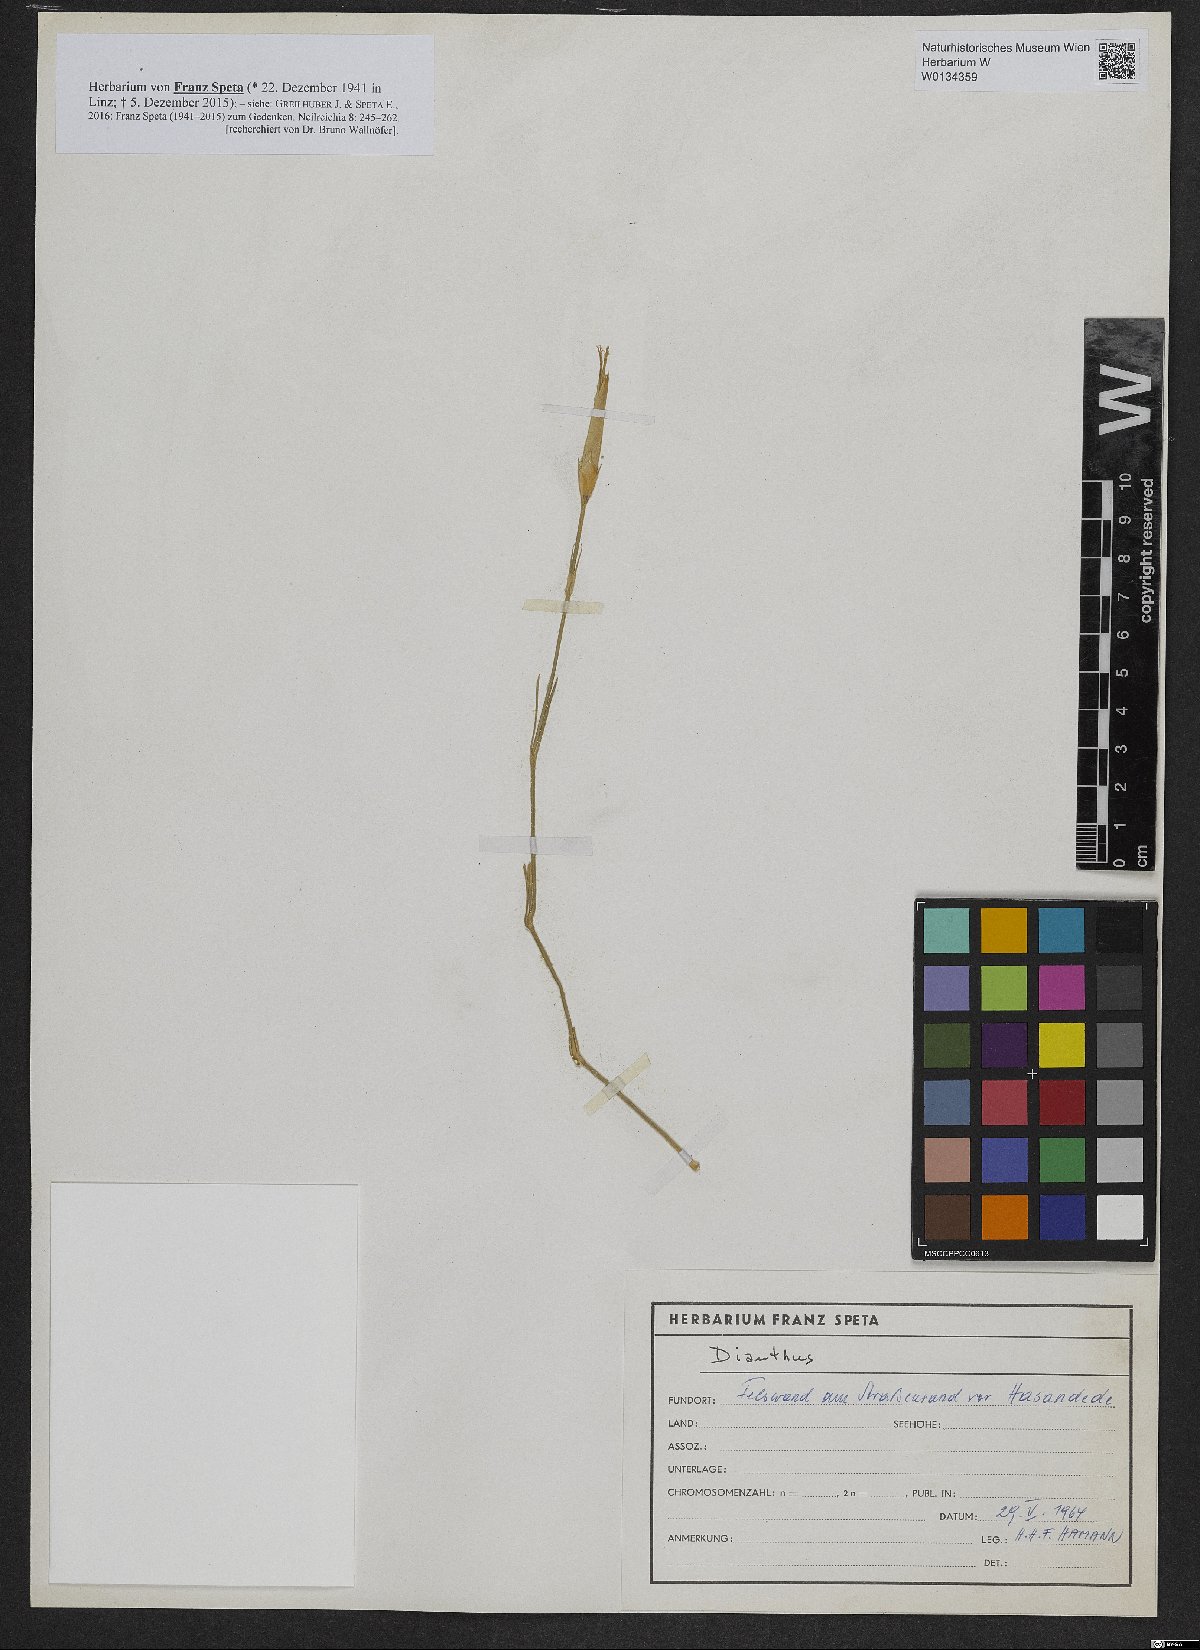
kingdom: Plantae
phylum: Tracheophyta
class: Magnoliopsida
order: Caryophyllales
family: Caryophyllaceae
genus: Dianthus
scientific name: Dianthus
